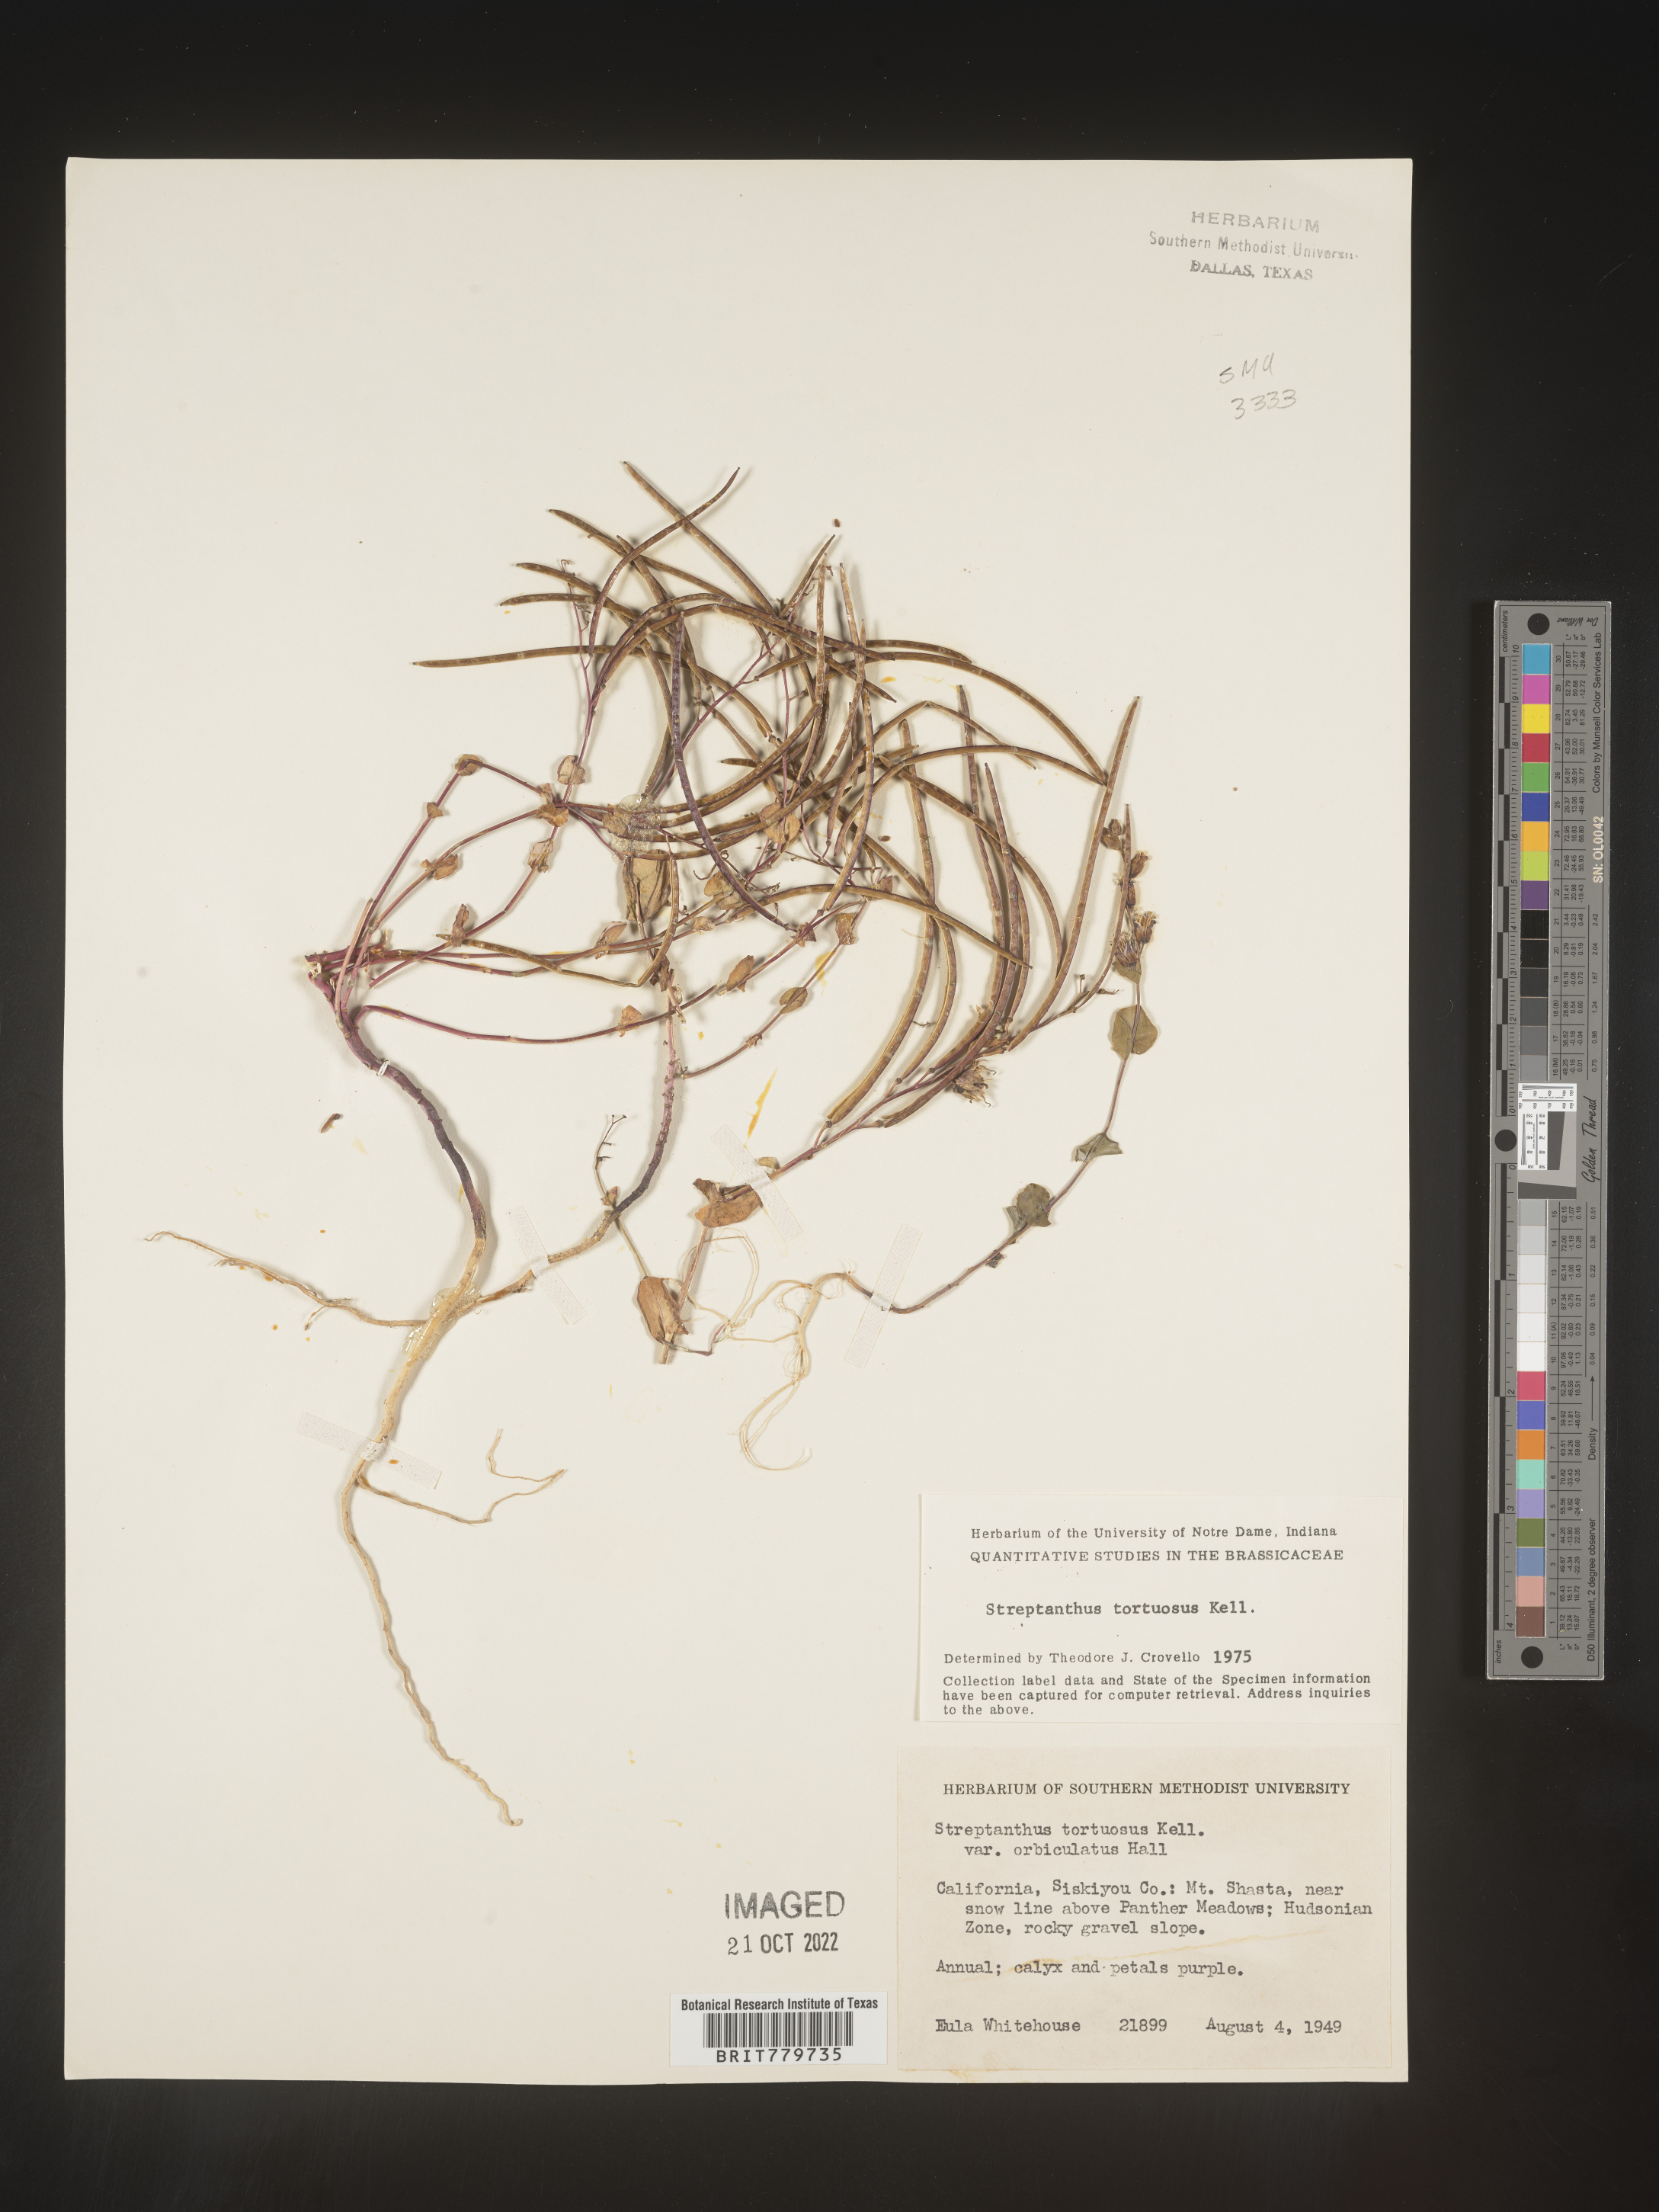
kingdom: Plantae
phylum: Tracheophyta
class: Magnoliopsida
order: Brassicales
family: Brassicaceae
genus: Streptanthus
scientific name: Streptanthus
